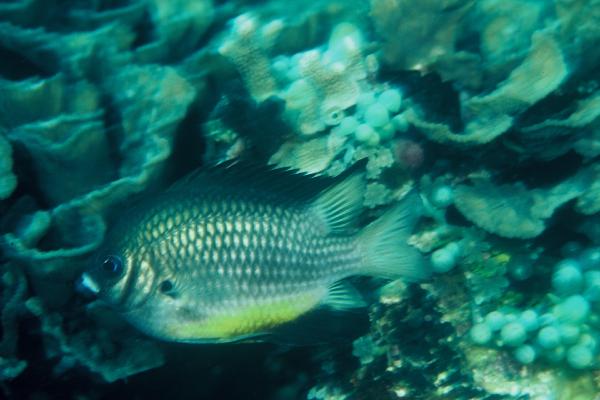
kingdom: Animalia
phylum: Chordata
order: Perciformes
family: Pomacentridae
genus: Amblyglyphidodon
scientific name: Amblyglyphidodon leucogaster
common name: White-belly damsel
